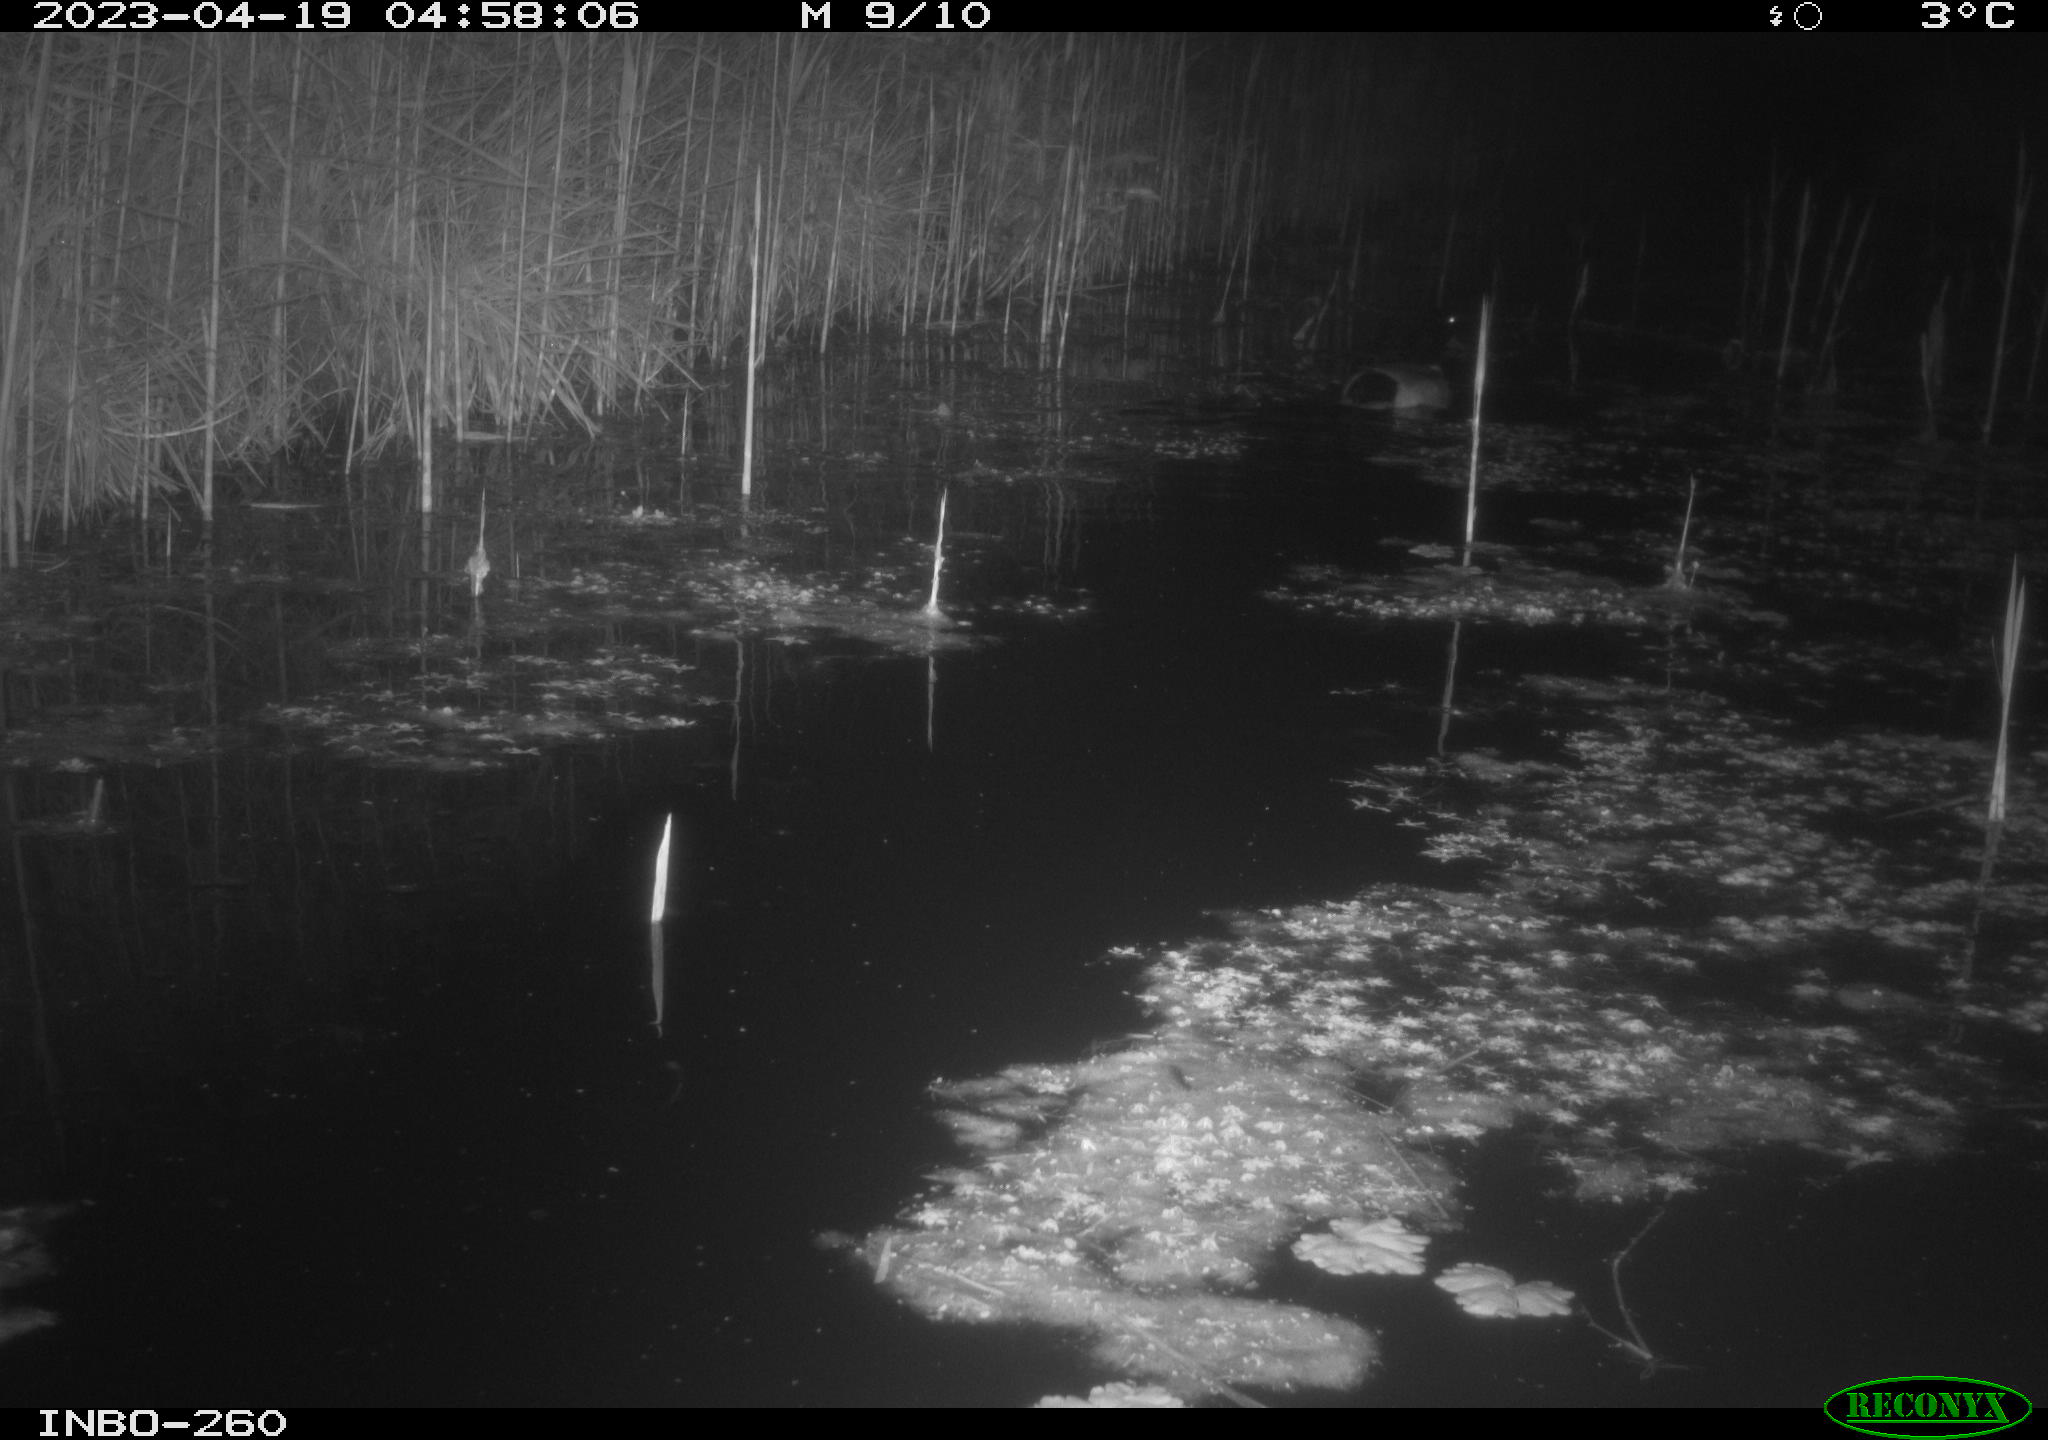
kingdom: Animalia
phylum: Chordata
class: Aves
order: Anseriformes
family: Anatidae
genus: Anas
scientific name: Anas
